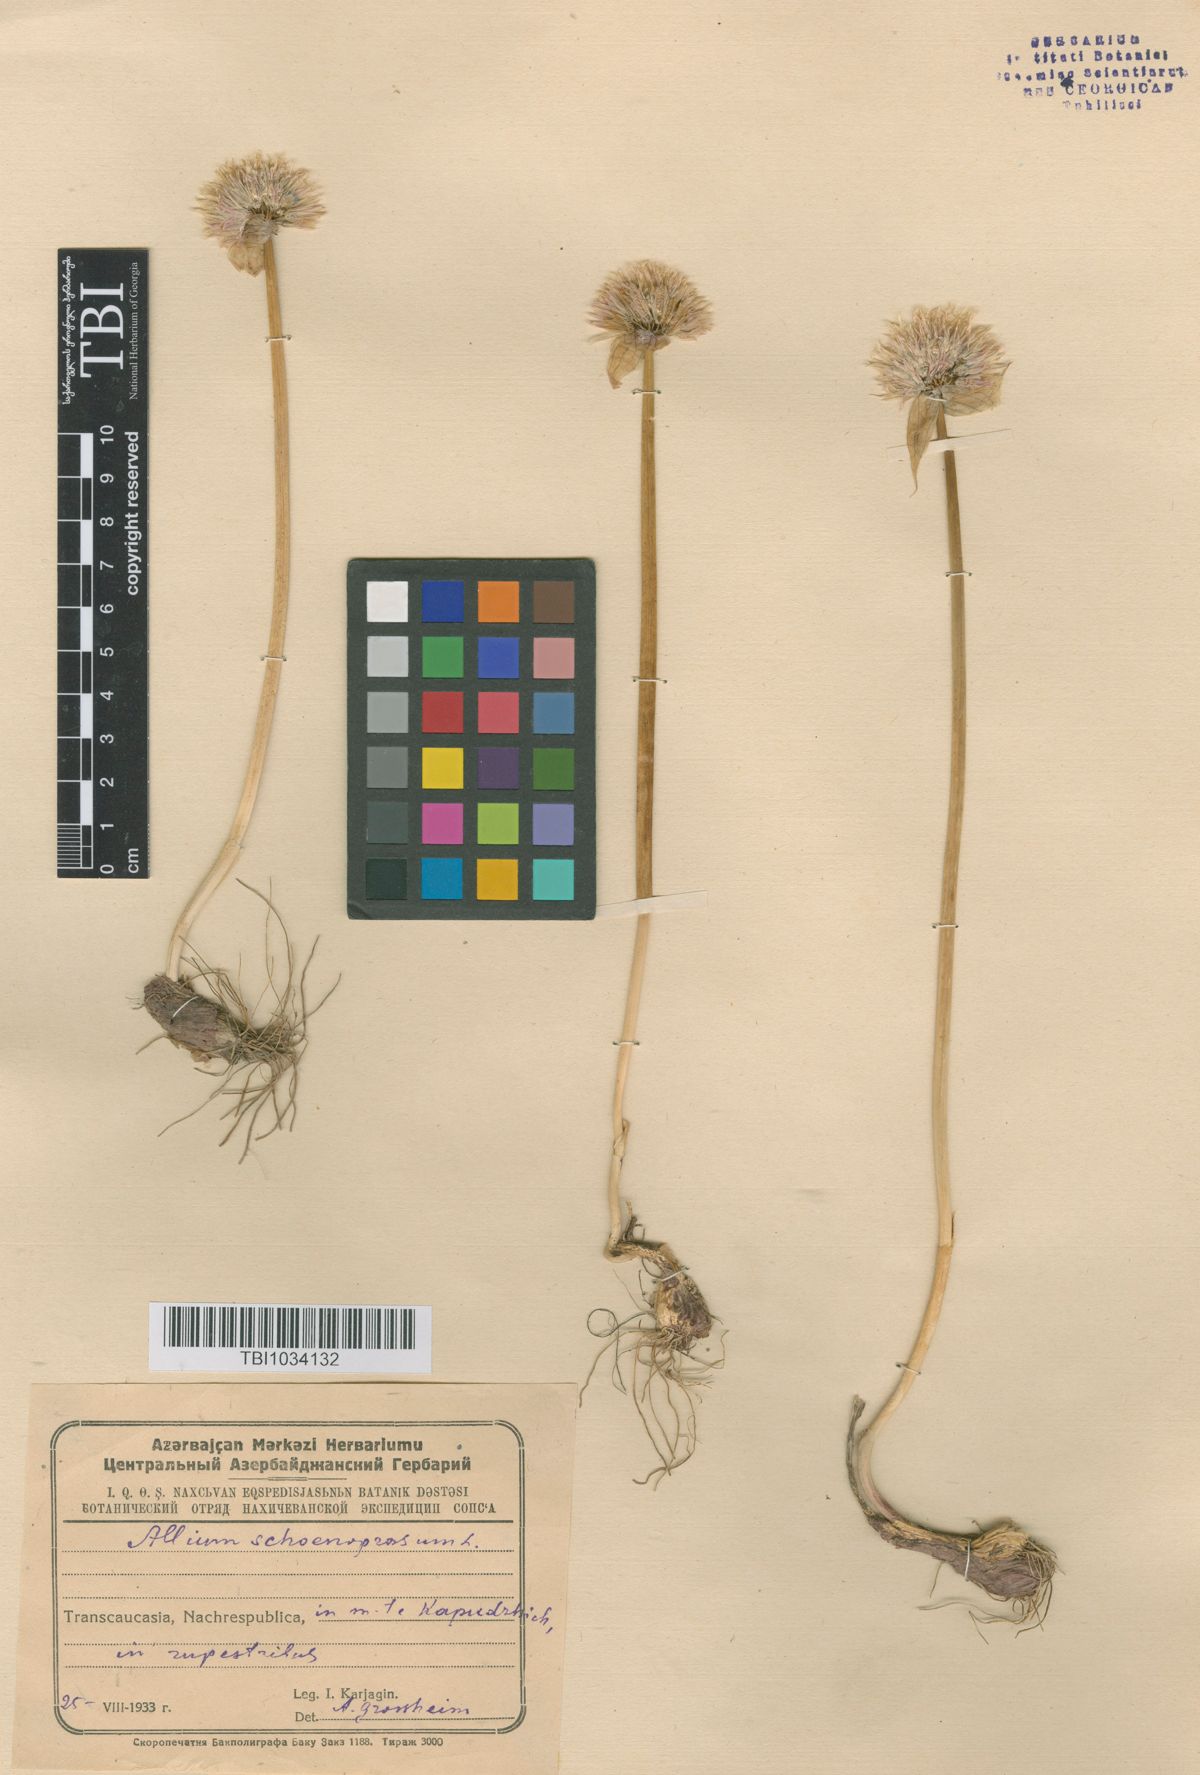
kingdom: Plantae
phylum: Tracheophyta
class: Liliopsida
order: Asparagales
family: Amaryllidaceae
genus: Allium
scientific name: Allium schoenoprasum
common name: Chives
